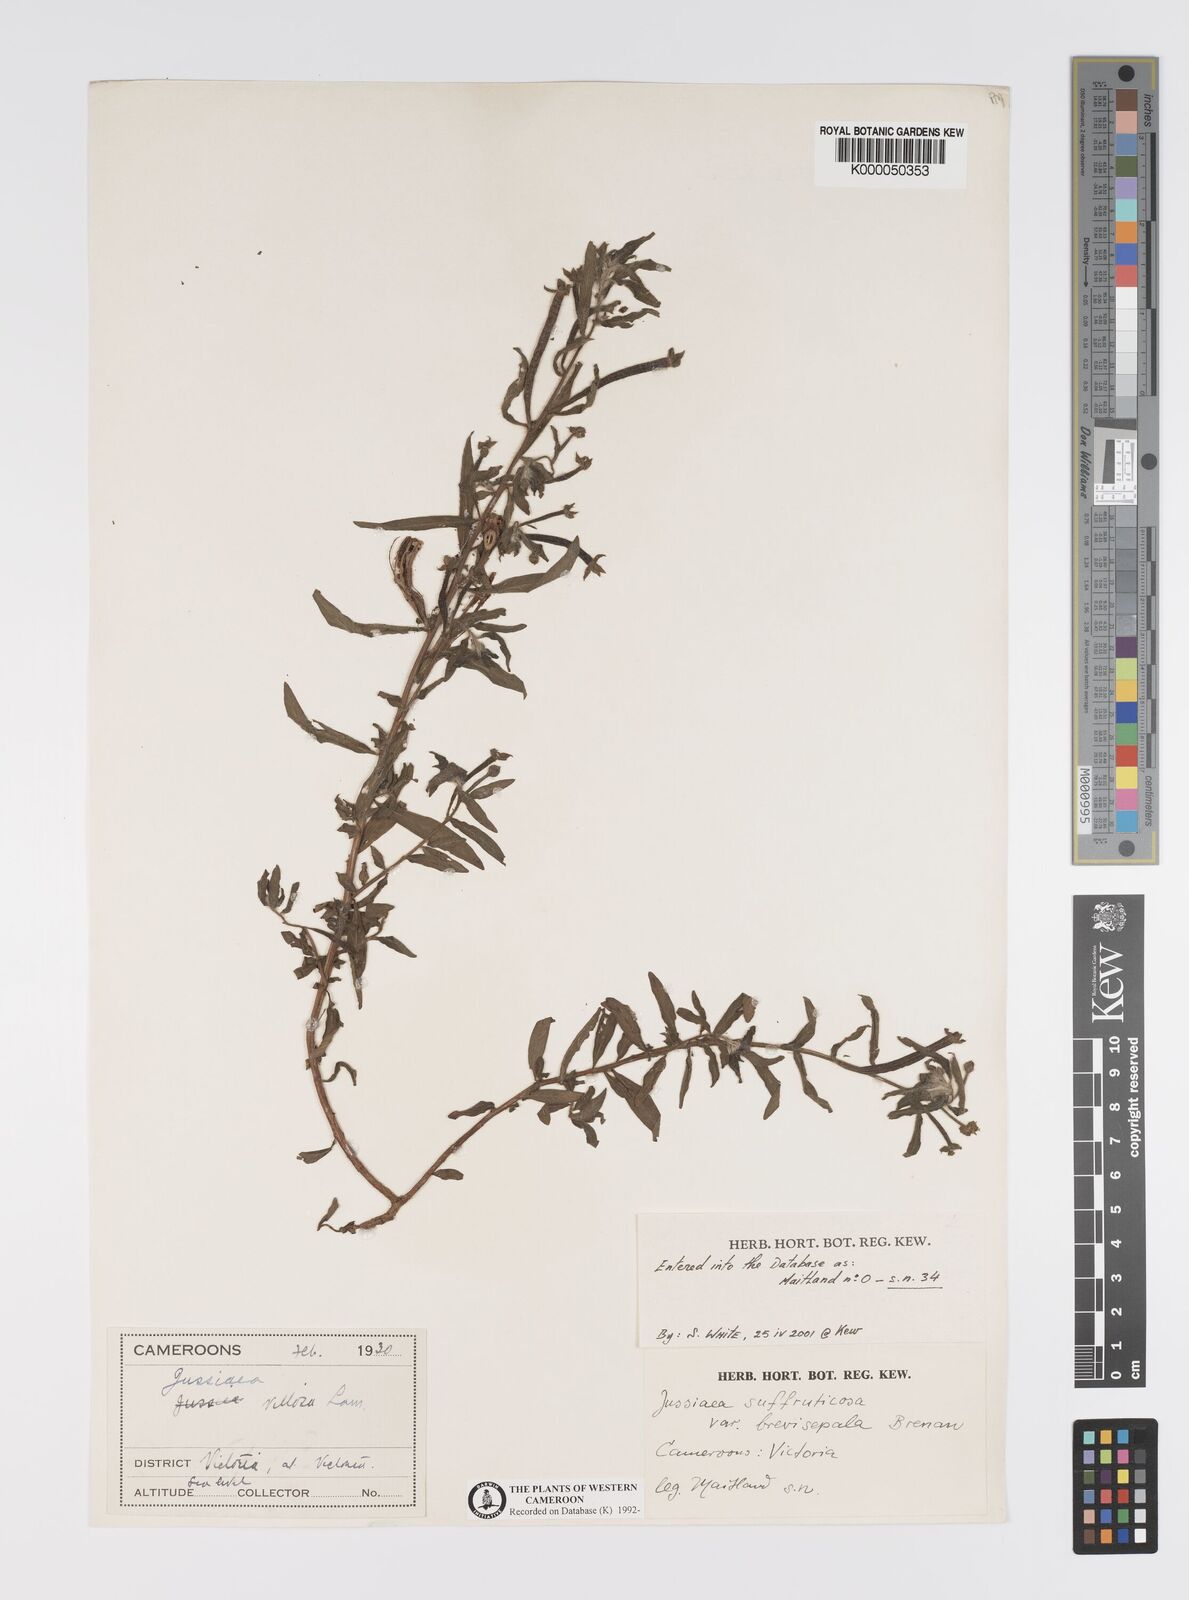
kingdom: Plantae
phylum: Tracheophyta
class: Magnoliopsida
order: Myrtales
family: Onagraceae
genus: Ludwigia
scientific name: Ludwigia octovalvis
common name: Water-primrose
